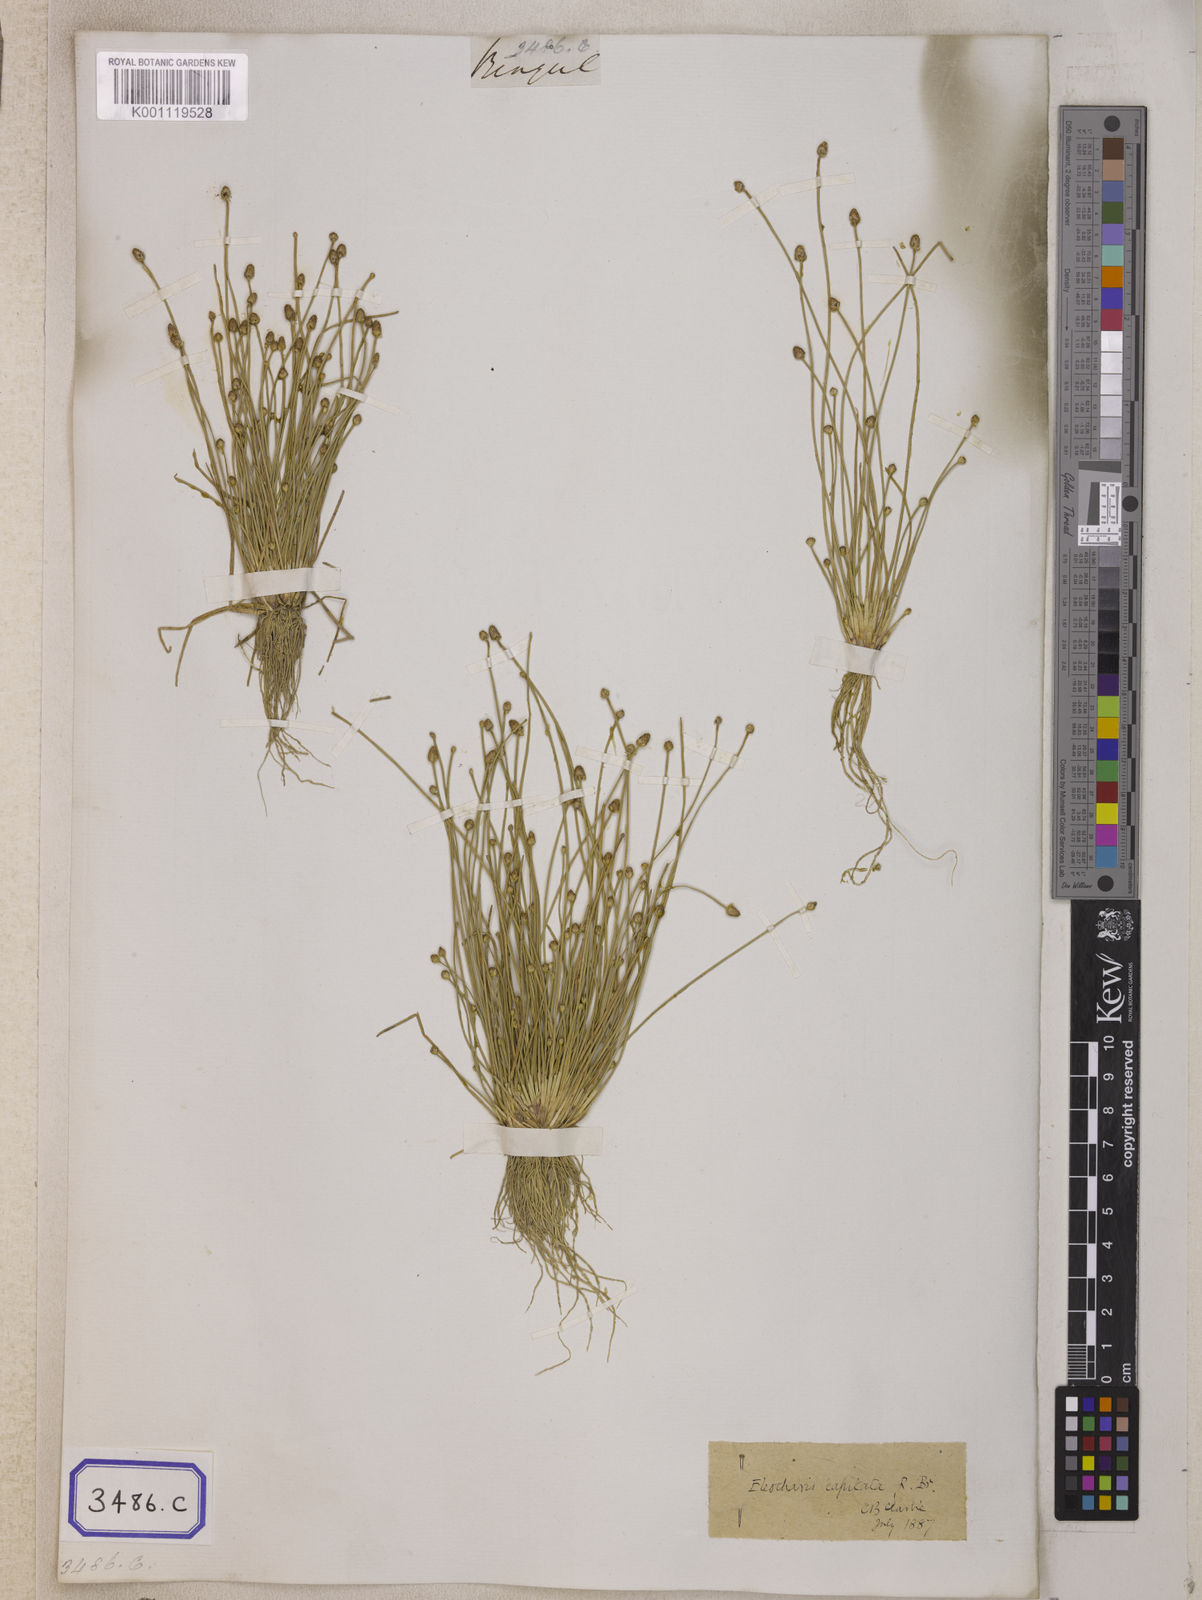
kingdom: Plantae
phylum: Tracheophyta
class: Liliopsida
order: Poales
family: Cyperaceae
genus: Isolepis
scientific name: Isolepis
